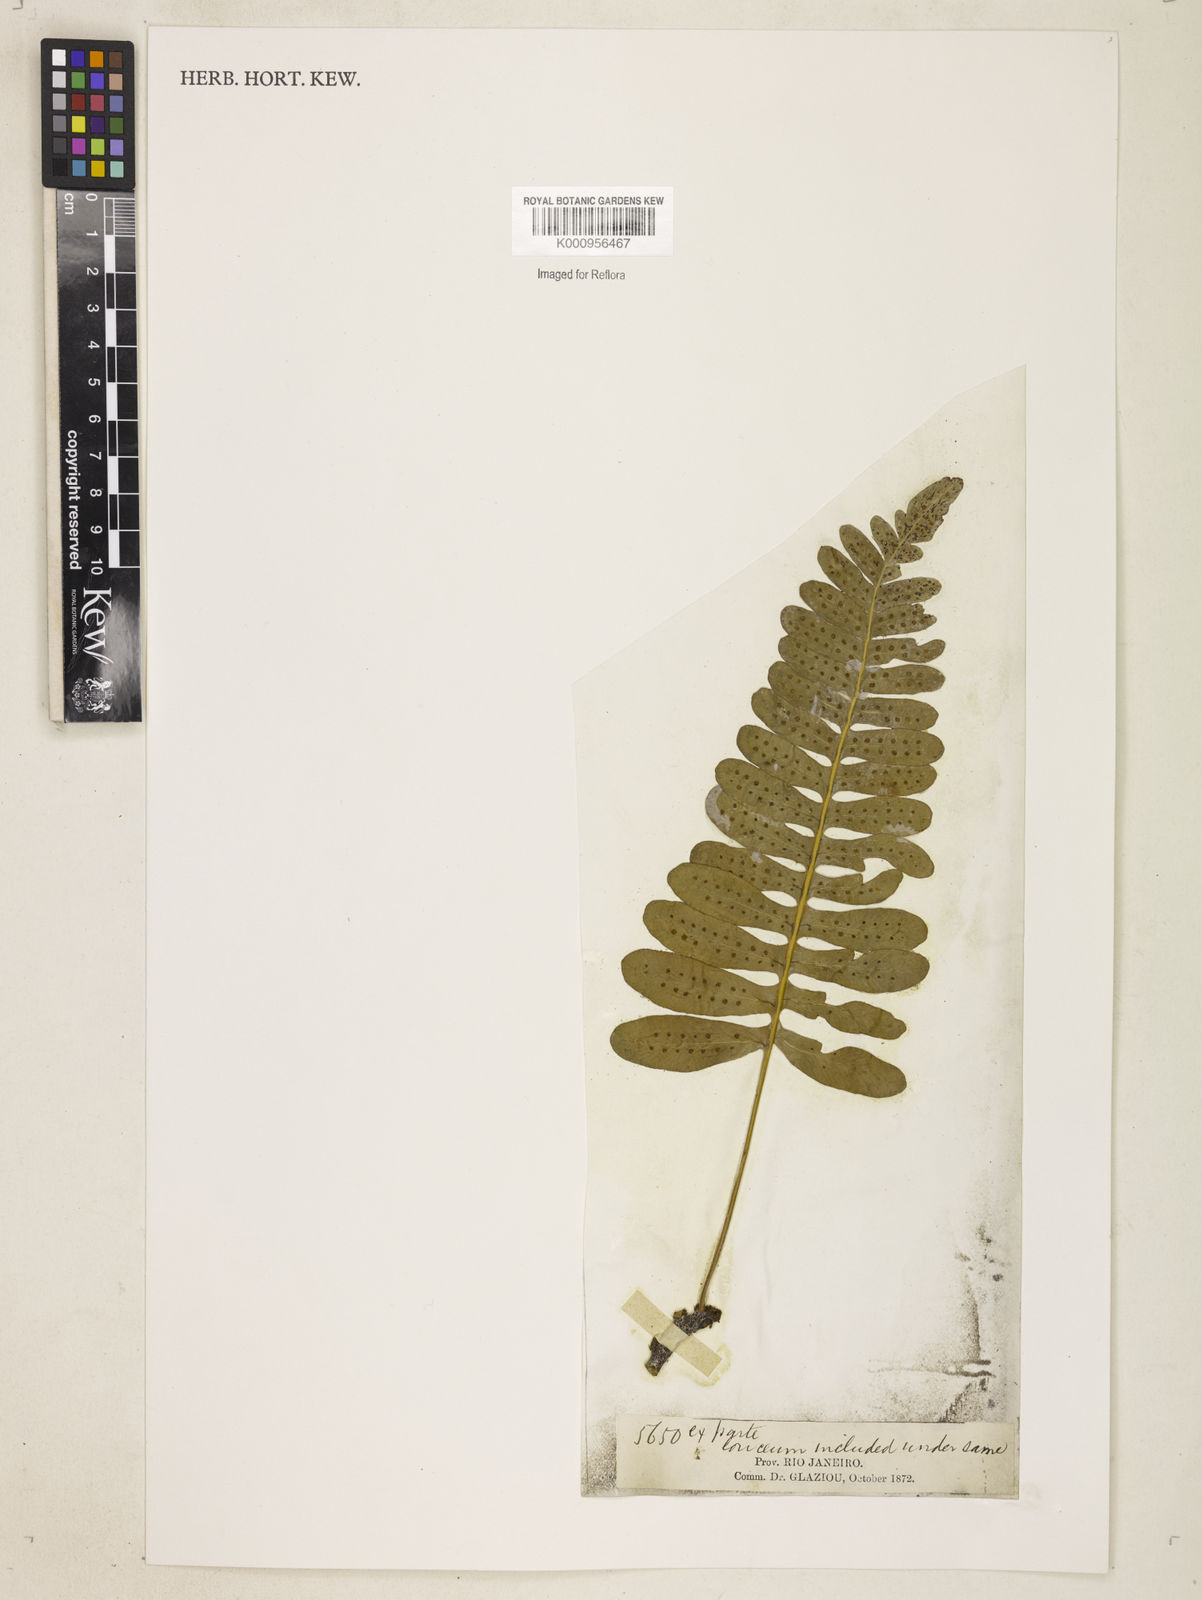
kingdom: Plantae
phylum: Tracheophyta
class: Polypodiopsida
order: Polypodiales
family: Polypodiaceae
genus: Polypodium
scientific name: Polypodium
